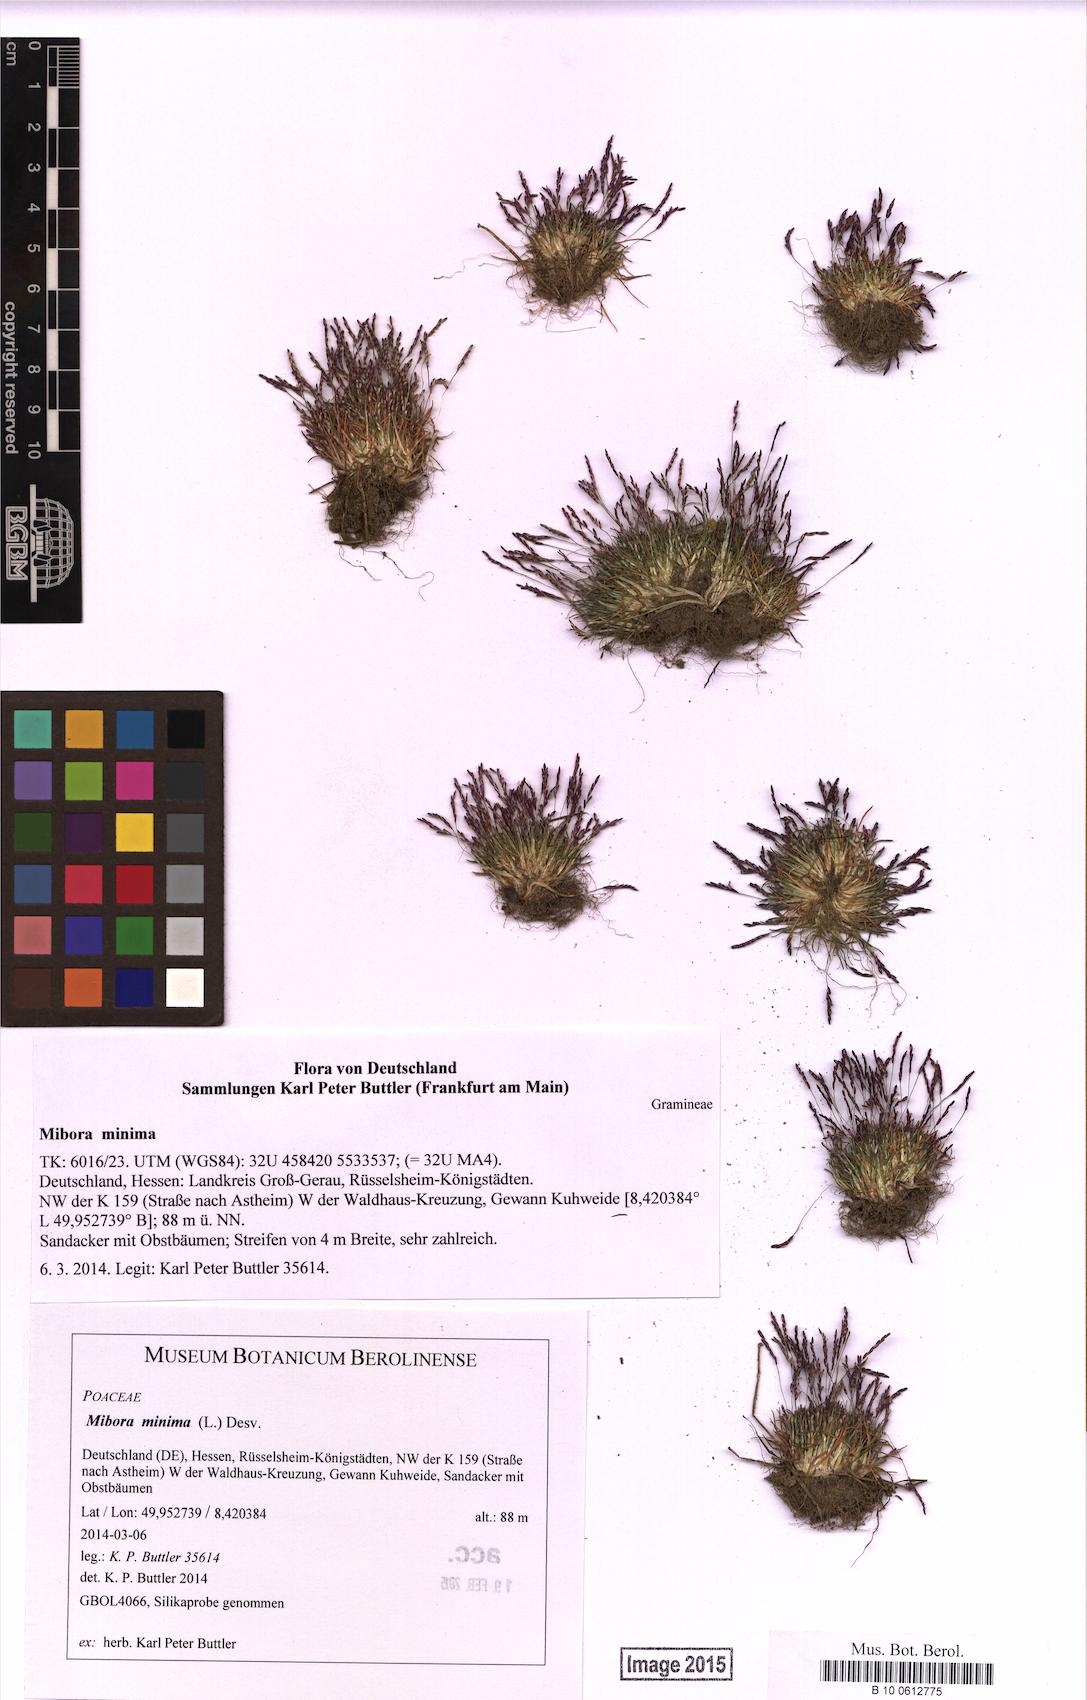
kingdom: Plantae
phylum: Tracheophyta
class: Liliopsida
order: Poales
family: Poaceae
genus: Mibora
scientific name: Mibora minima
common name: Early sand-grass
